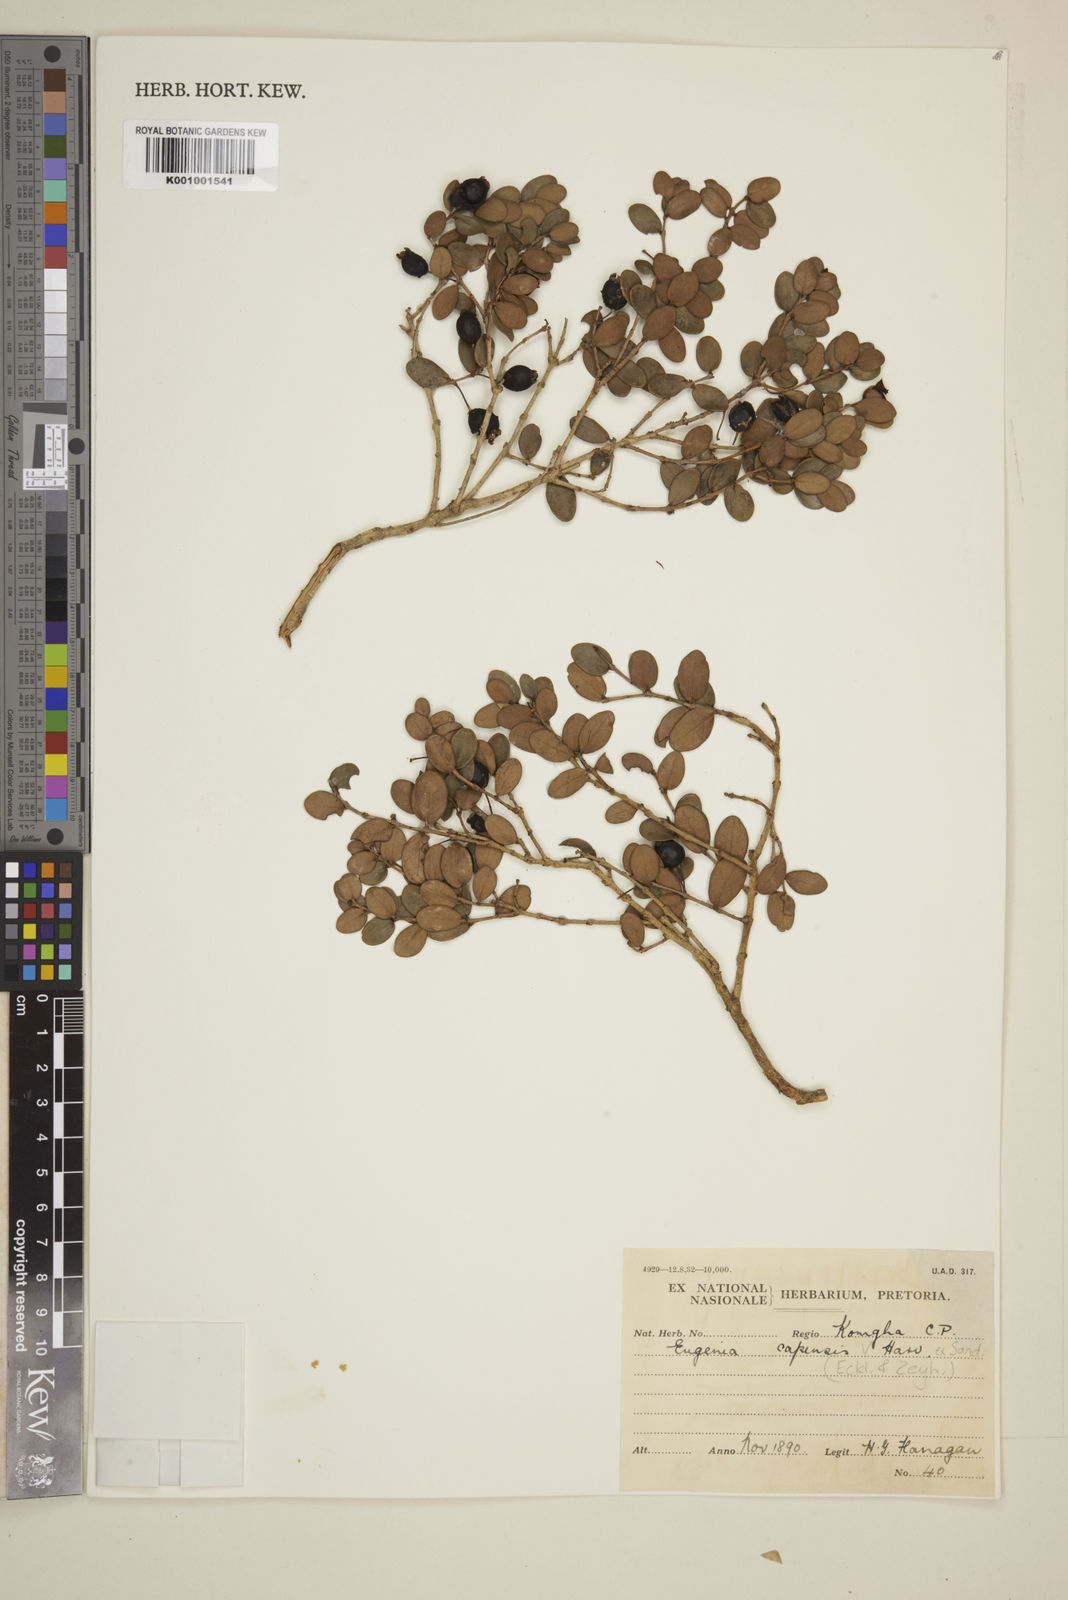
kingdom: Plantae
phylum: Tracheophyta
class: Magnoliopsida
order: Myrtales
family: Myrtaceae
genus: Eugenia
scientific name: Eugenia capensis
